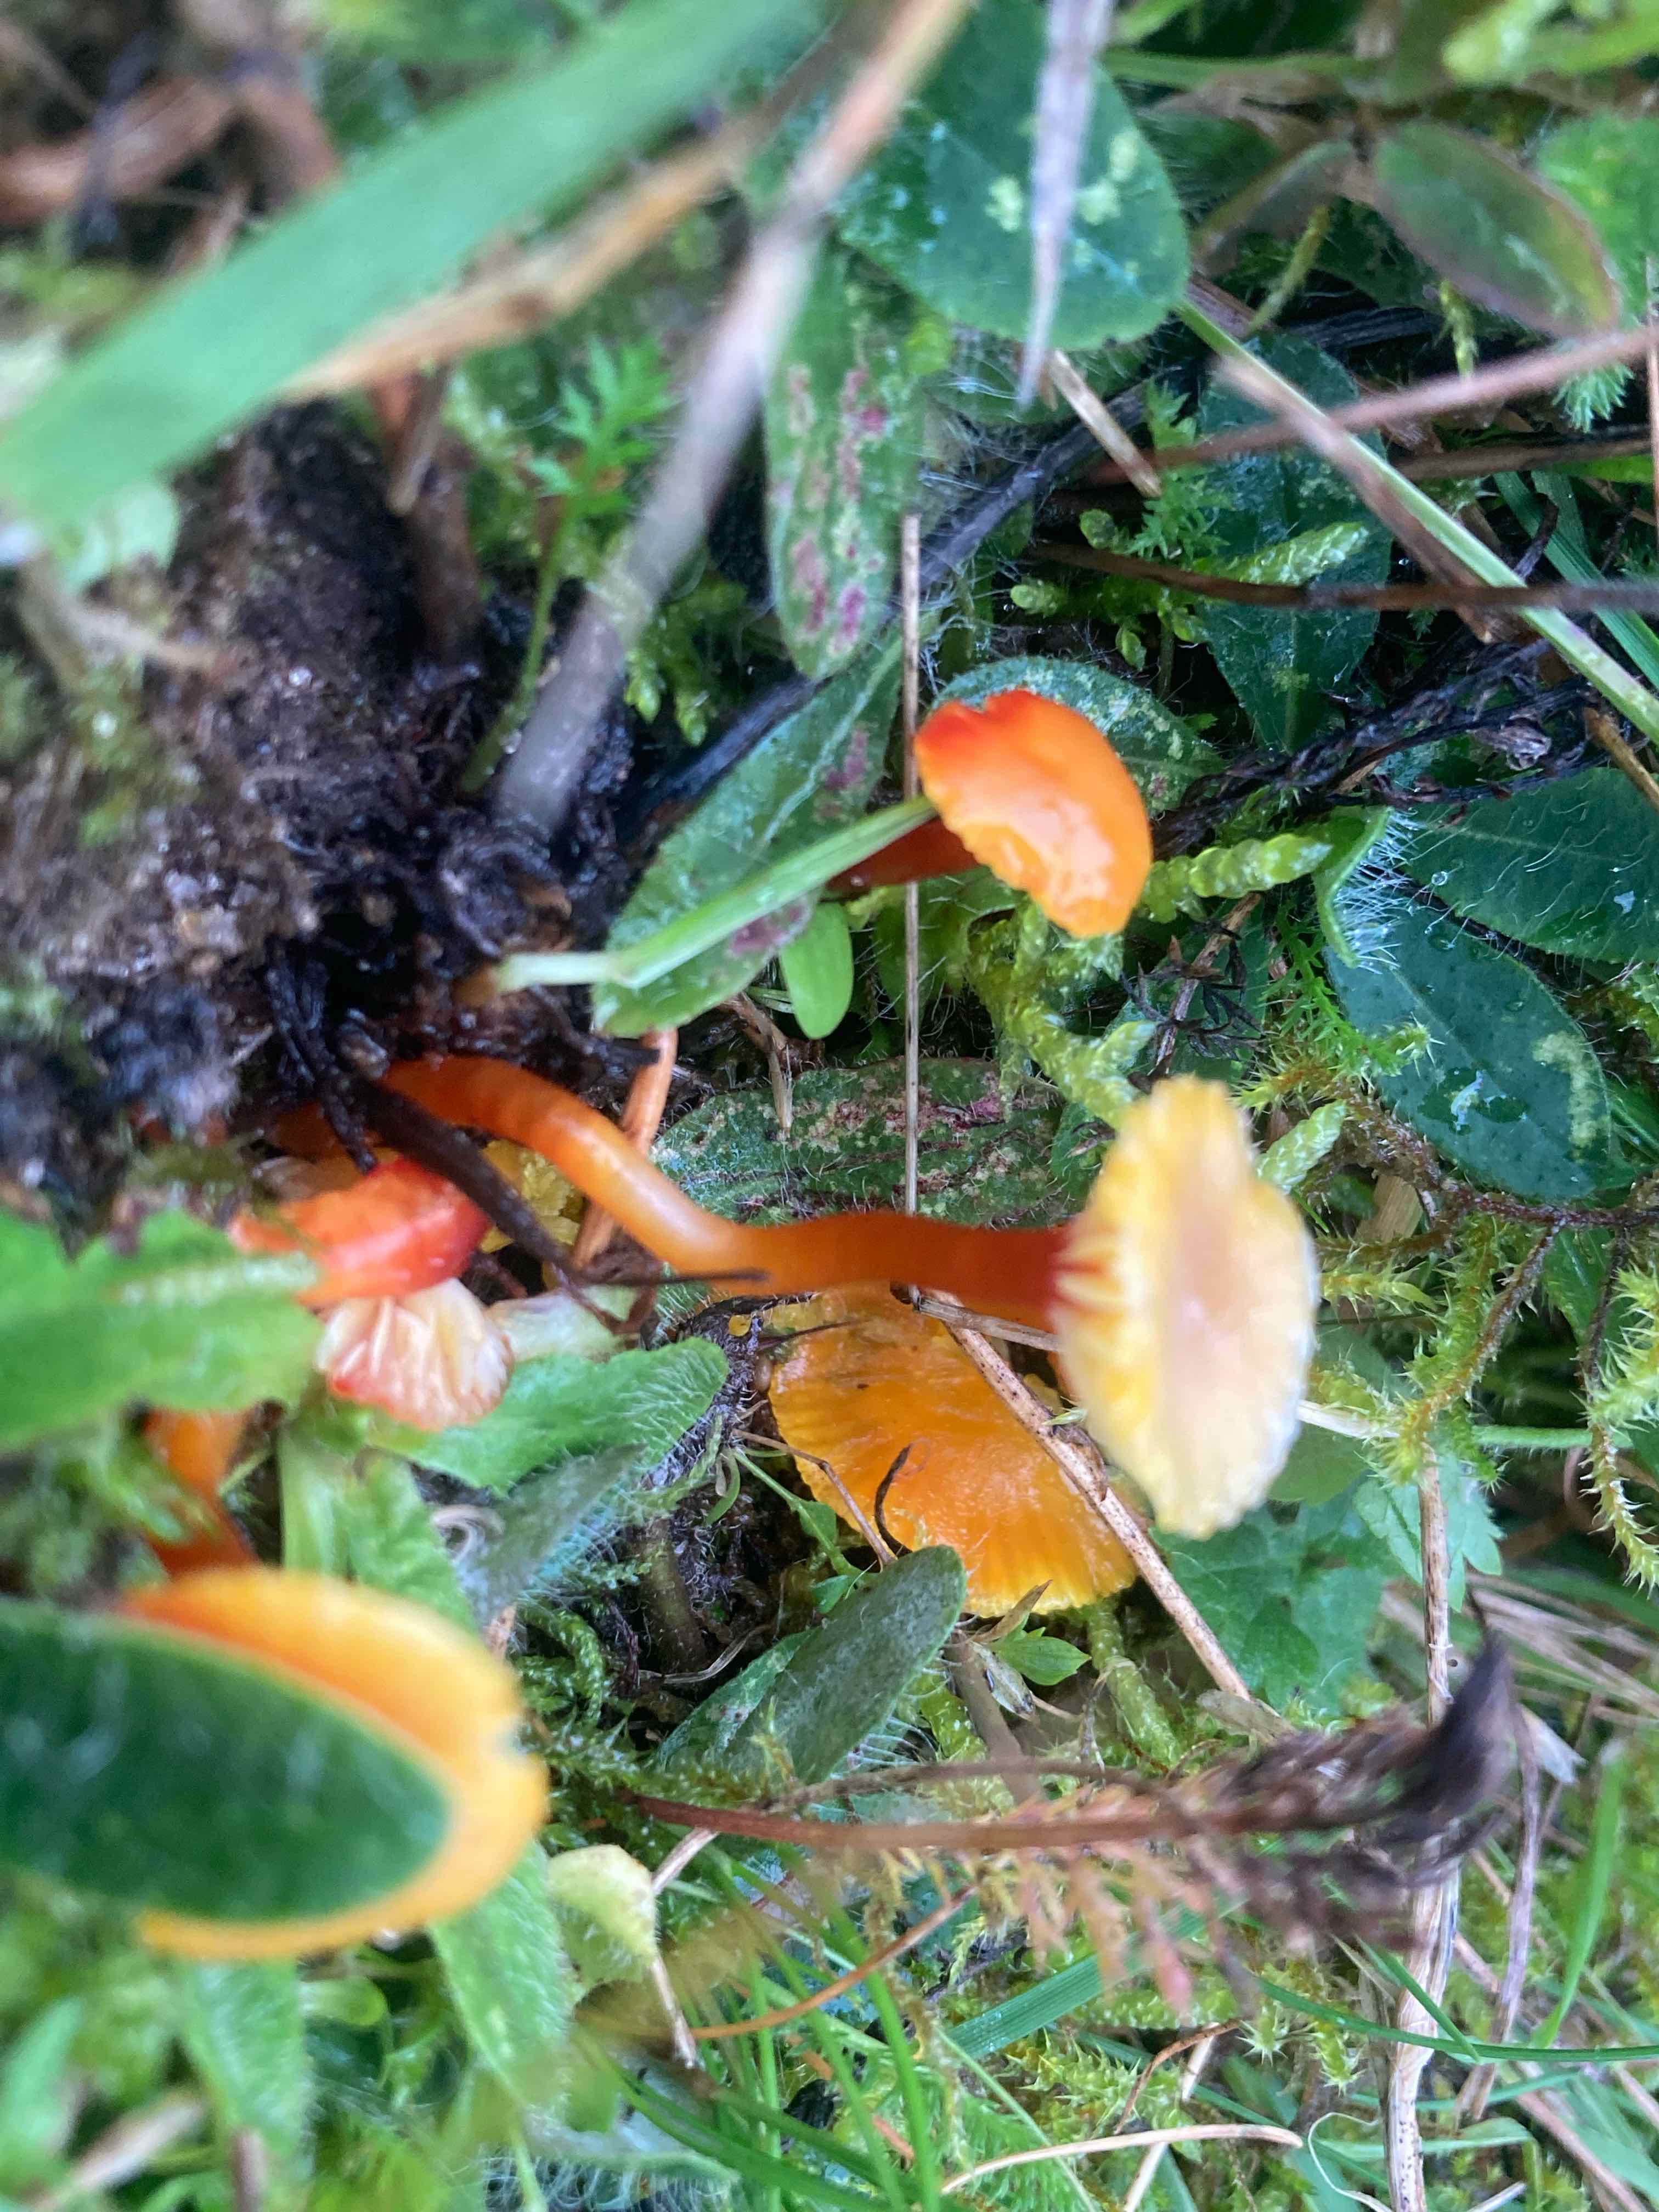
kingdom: Fungi
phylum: Basidiomycota
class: Agaricomycetes
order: Agaricales
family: Hygrophoraceae
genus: Hygrocybe
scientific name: Hygrocybe insipida
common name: liden vokshat
